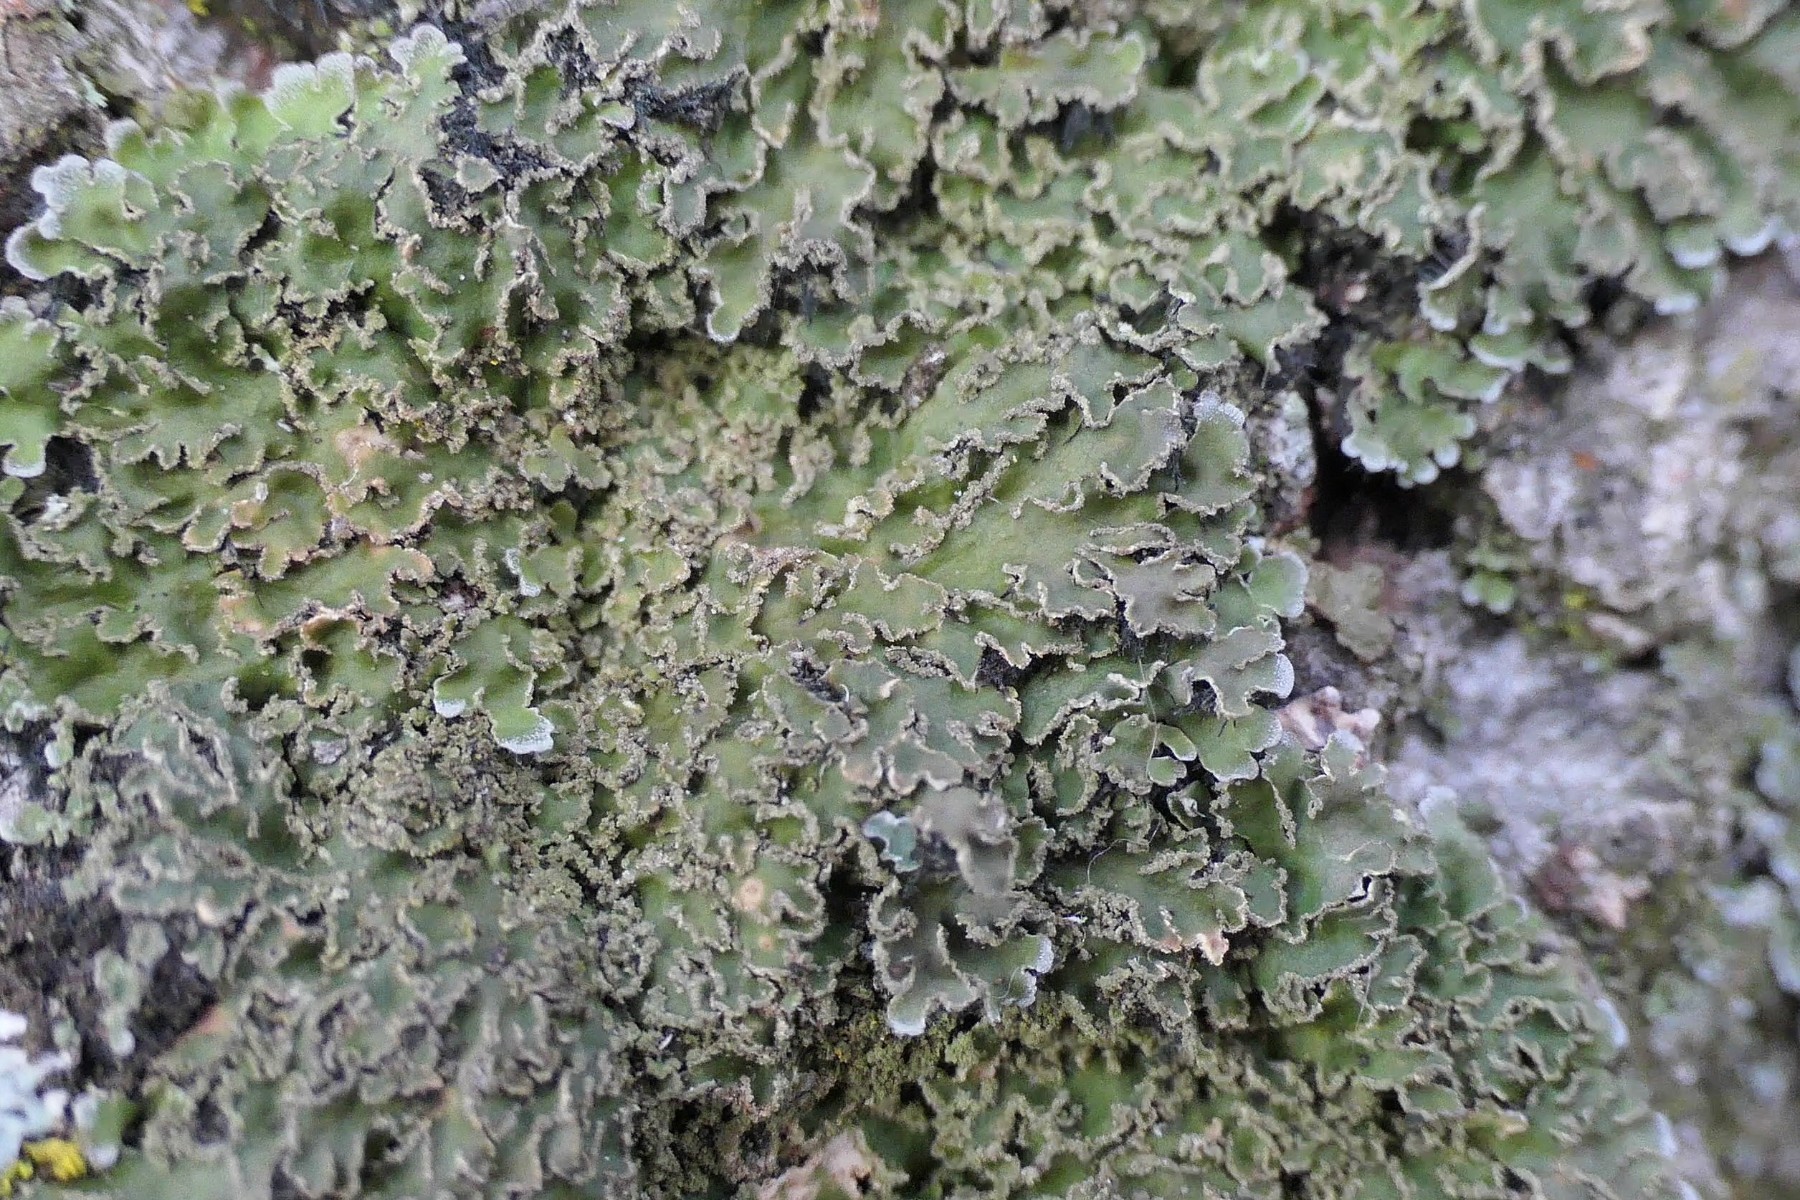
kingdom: Fungi
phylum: Ascomycota
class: Lecanoromycetes
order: Caliciales
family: Physciaceae
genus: Physconia
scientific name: Physconia enteroxantha
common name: grynet dugrosetlav
